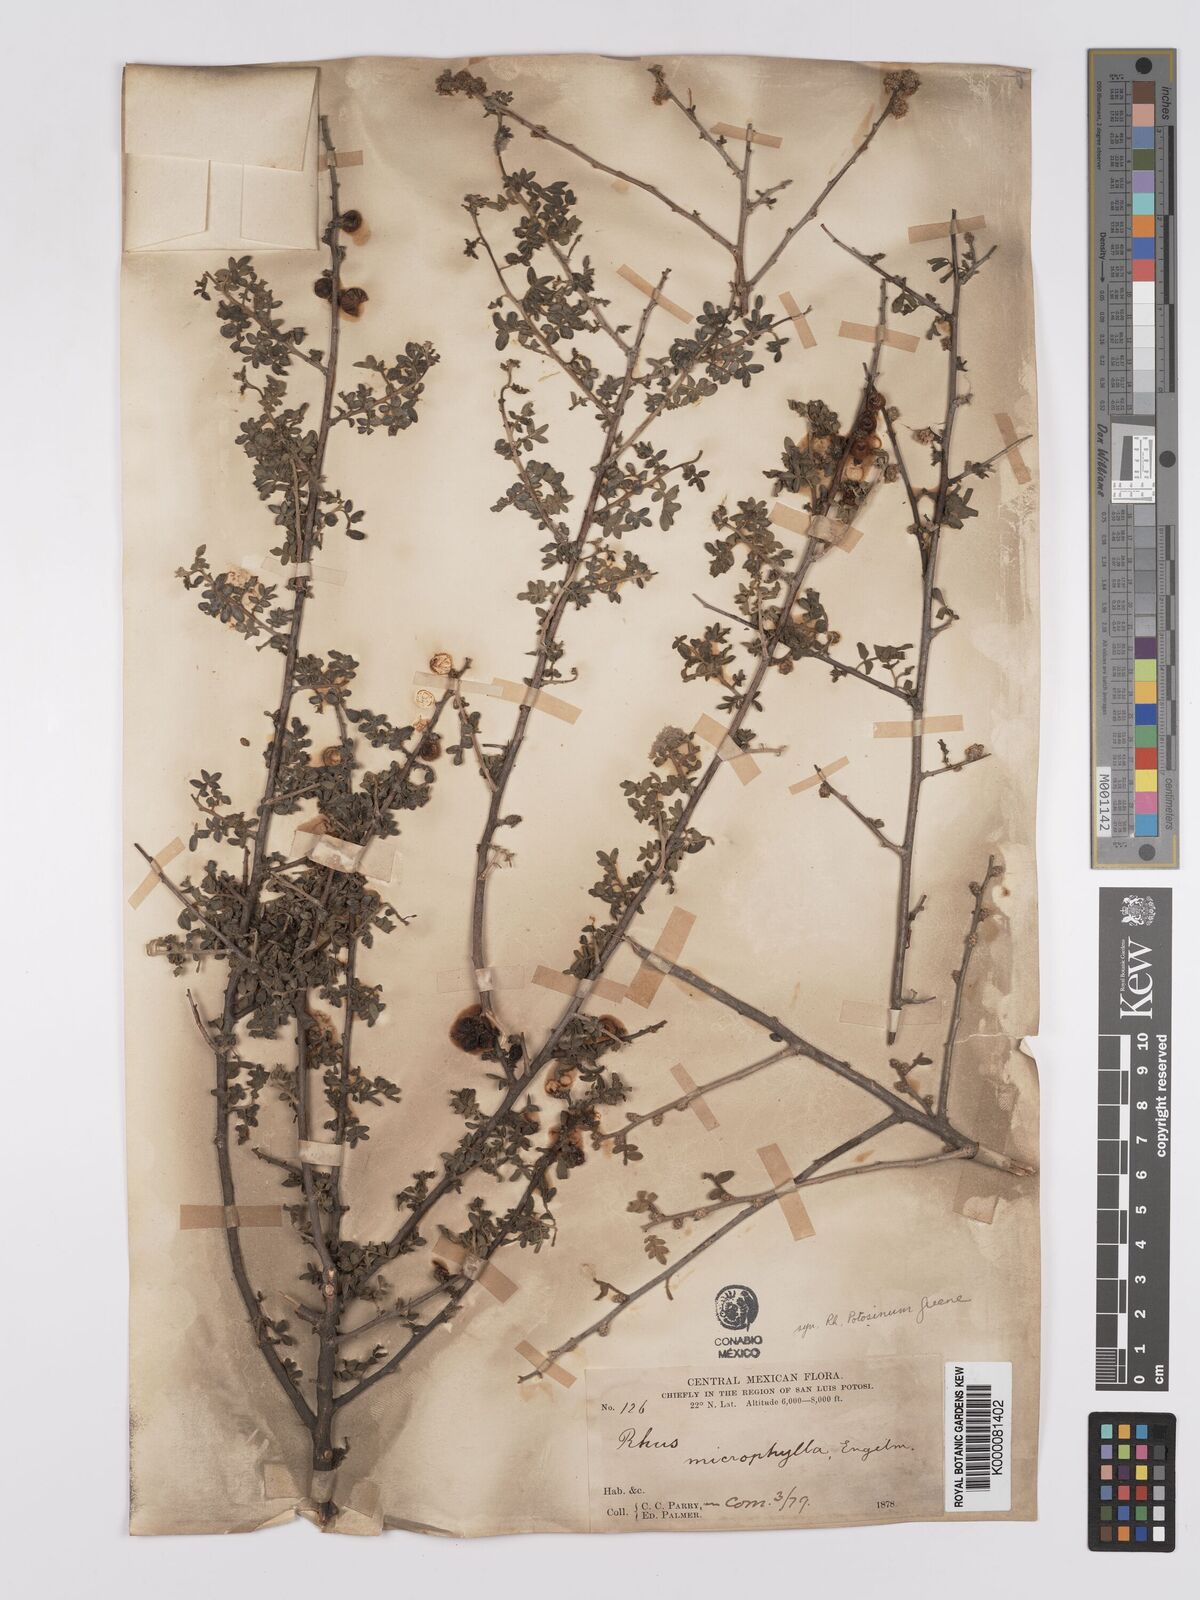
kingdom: Plantae
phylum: Tracheophyta
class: Magnoliopsida
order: Sapindales
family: Anacardiaceae
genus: Rhus
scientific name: Rhus
